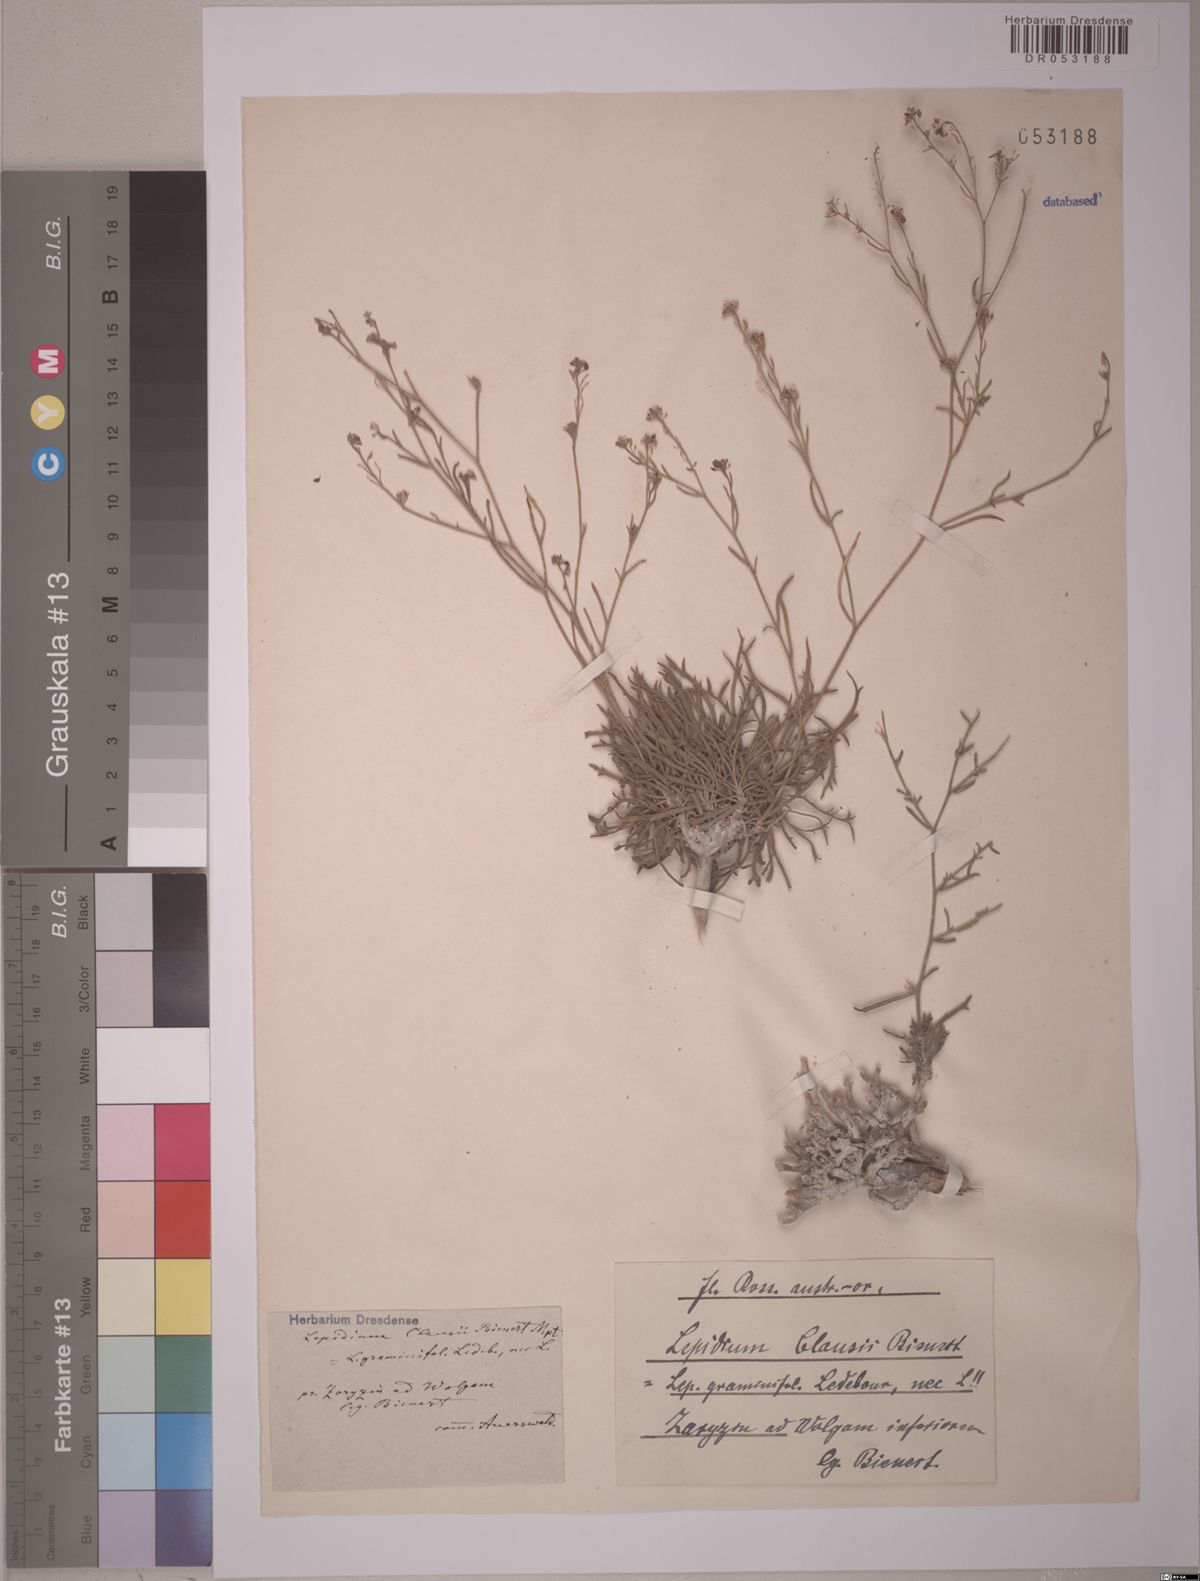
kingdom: Plantae
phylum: Tracheophyta
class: Magnoliopsida
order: Brassicales
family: Brassicaceae
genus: Lepidium
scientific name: Lepidium graminifolium
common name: Tall pepperwort
